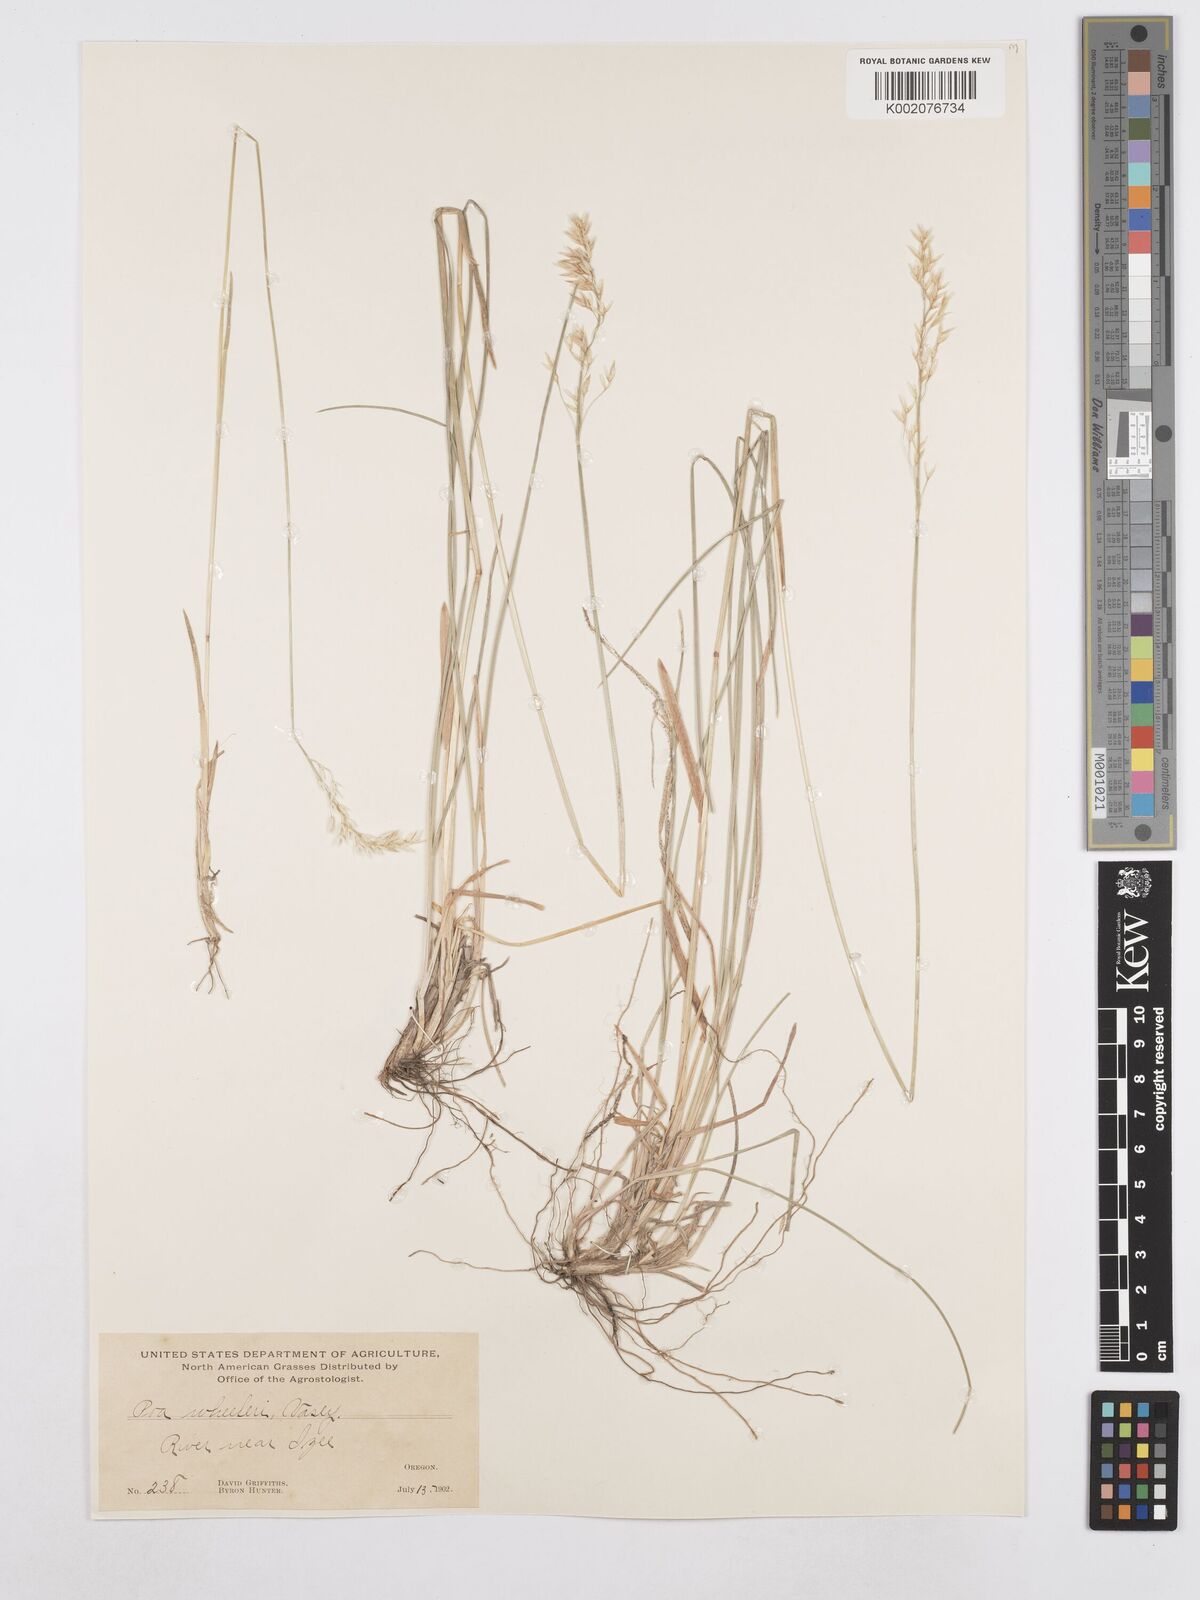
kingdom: Plantae
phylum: Tracheophyta
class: Liliopsida
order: Poales
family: Poaceae
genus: Poa
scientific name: Poa wheeleri
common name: Wheeler's bluegrass
